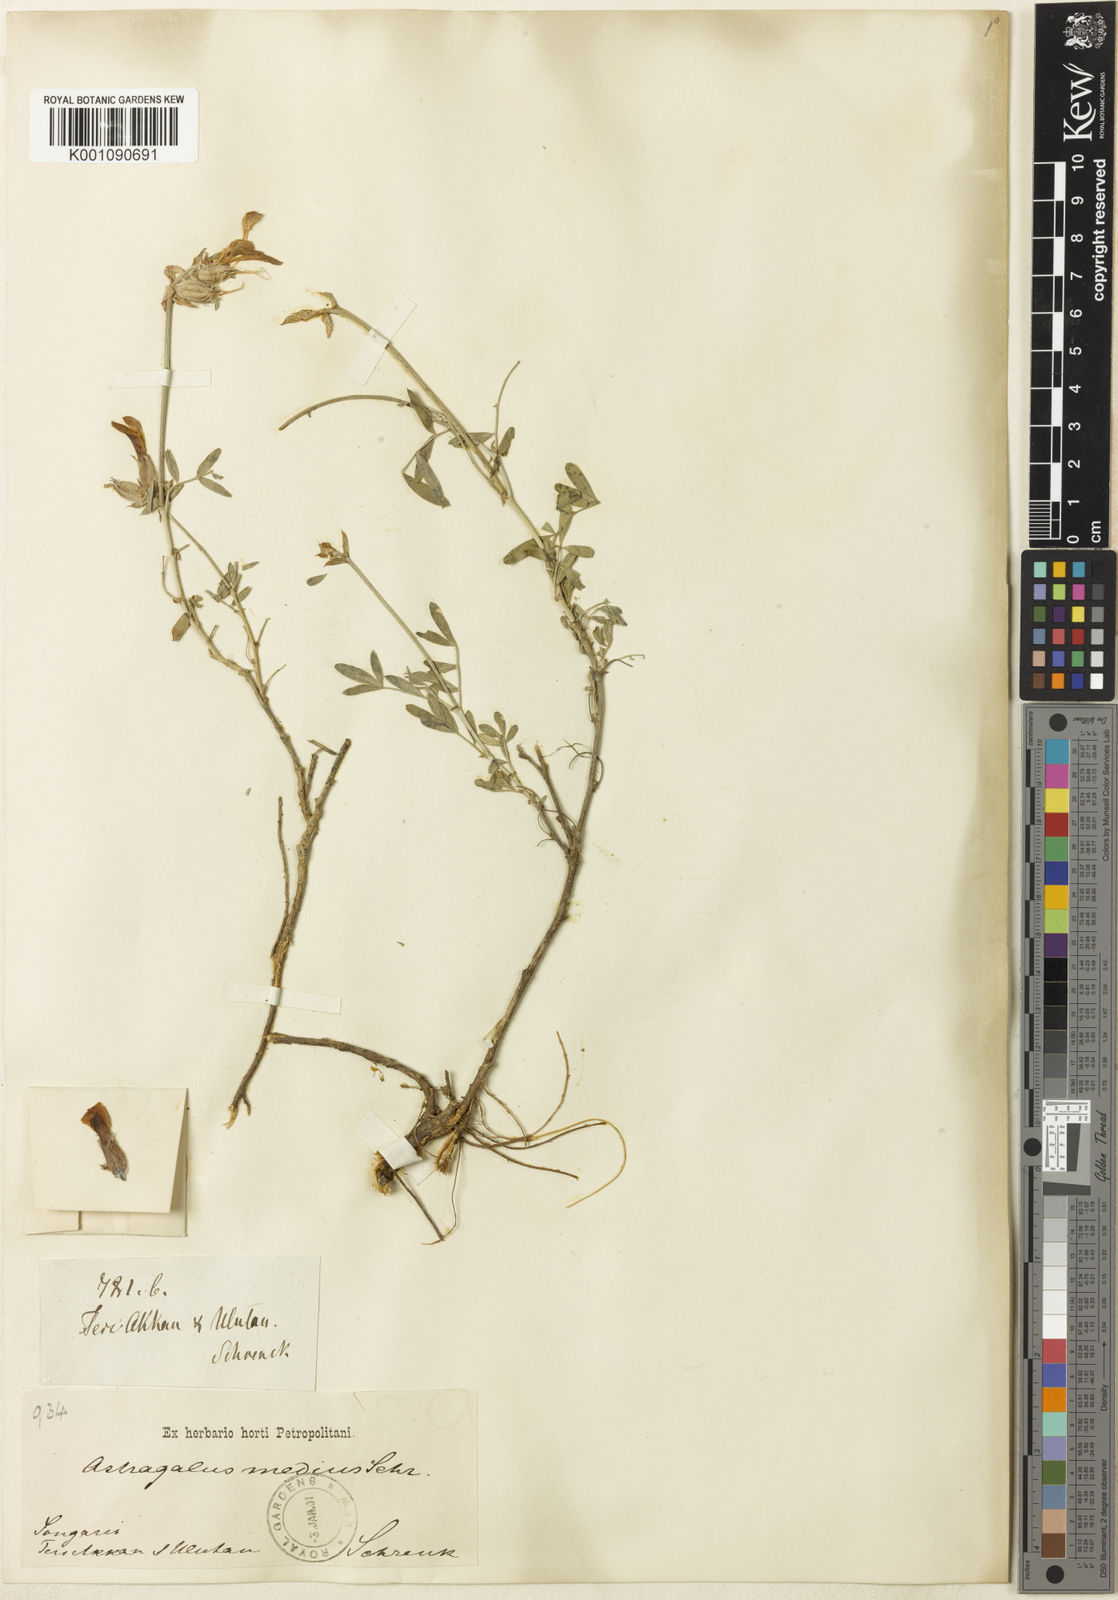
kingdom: Plantae
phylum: Tracheophyta
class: Magnoliopsida
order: Fabales
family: Fabaceae
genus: Astragalus
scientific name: Astragalus
